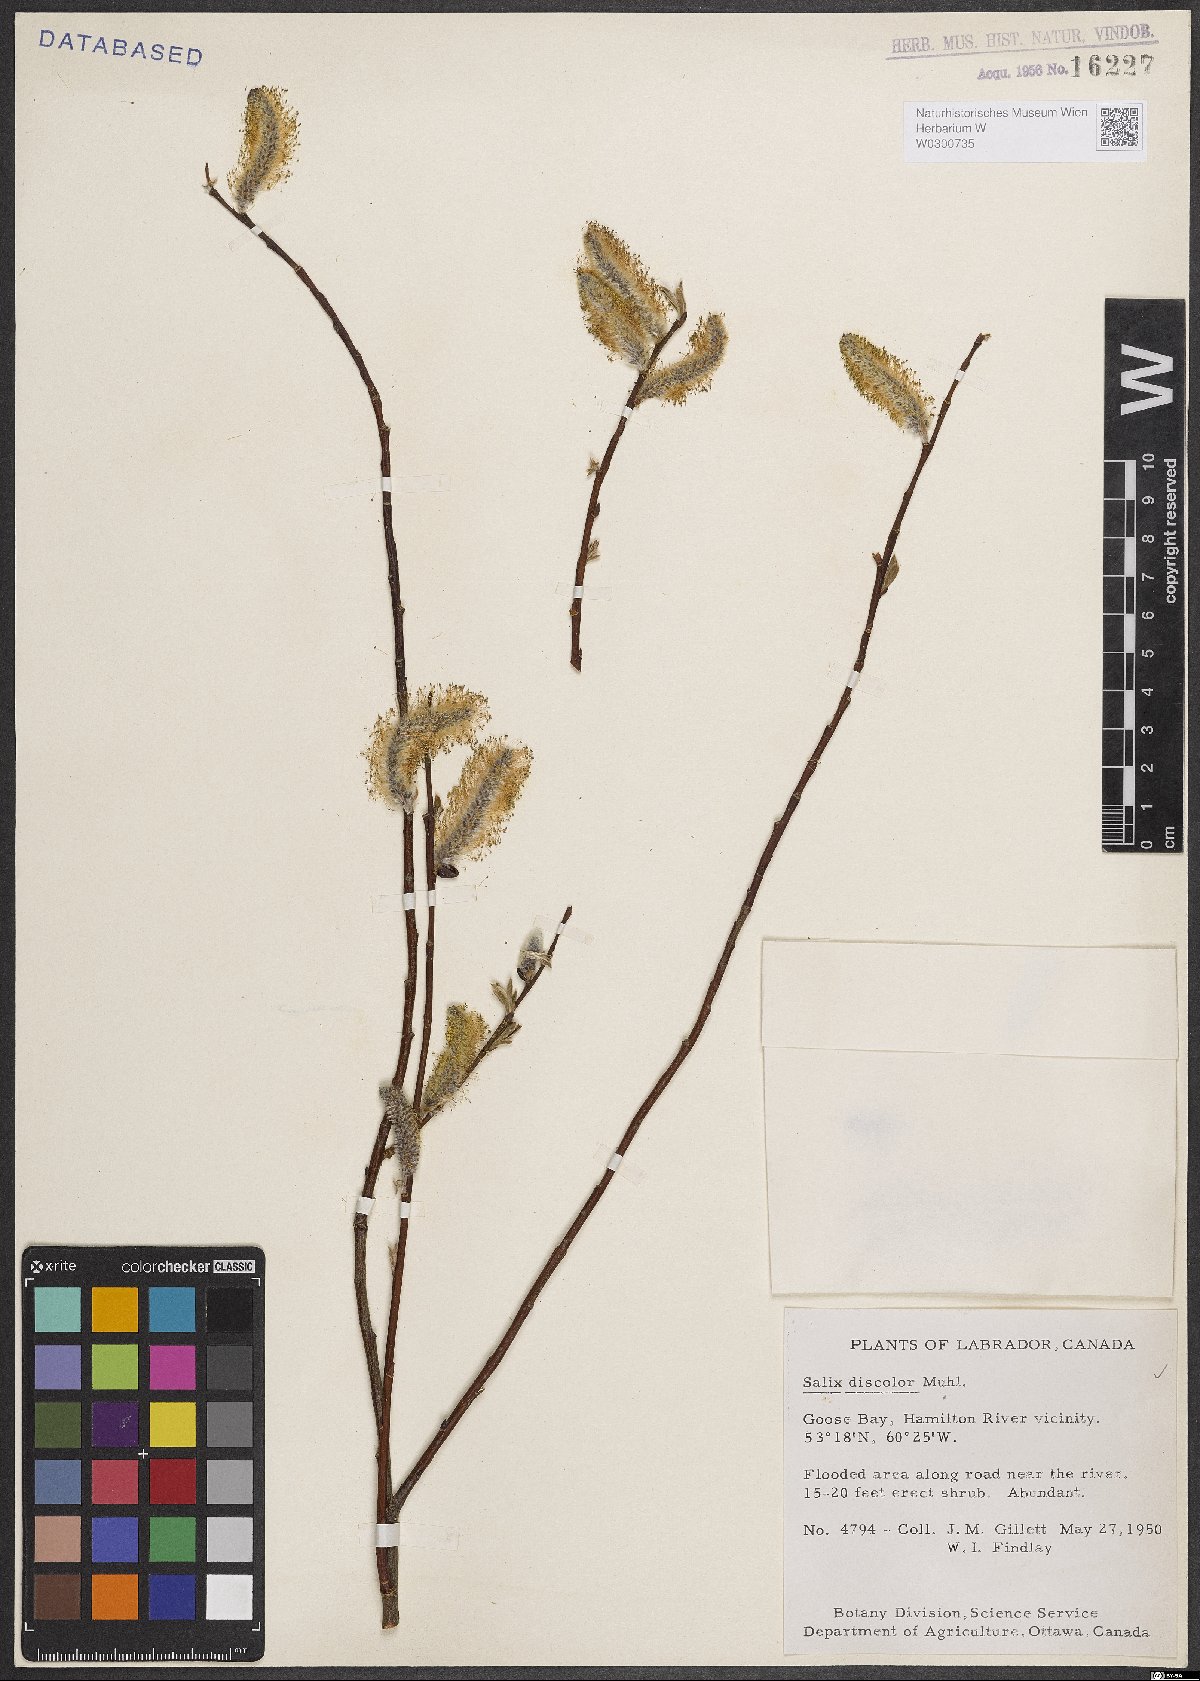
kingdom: Plantae
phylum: Tracheophyta
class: Magnoliopsida
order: Malpighiales
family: Salicaceae
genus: Salix
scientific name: Salix discolor
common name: Glaucous willow
